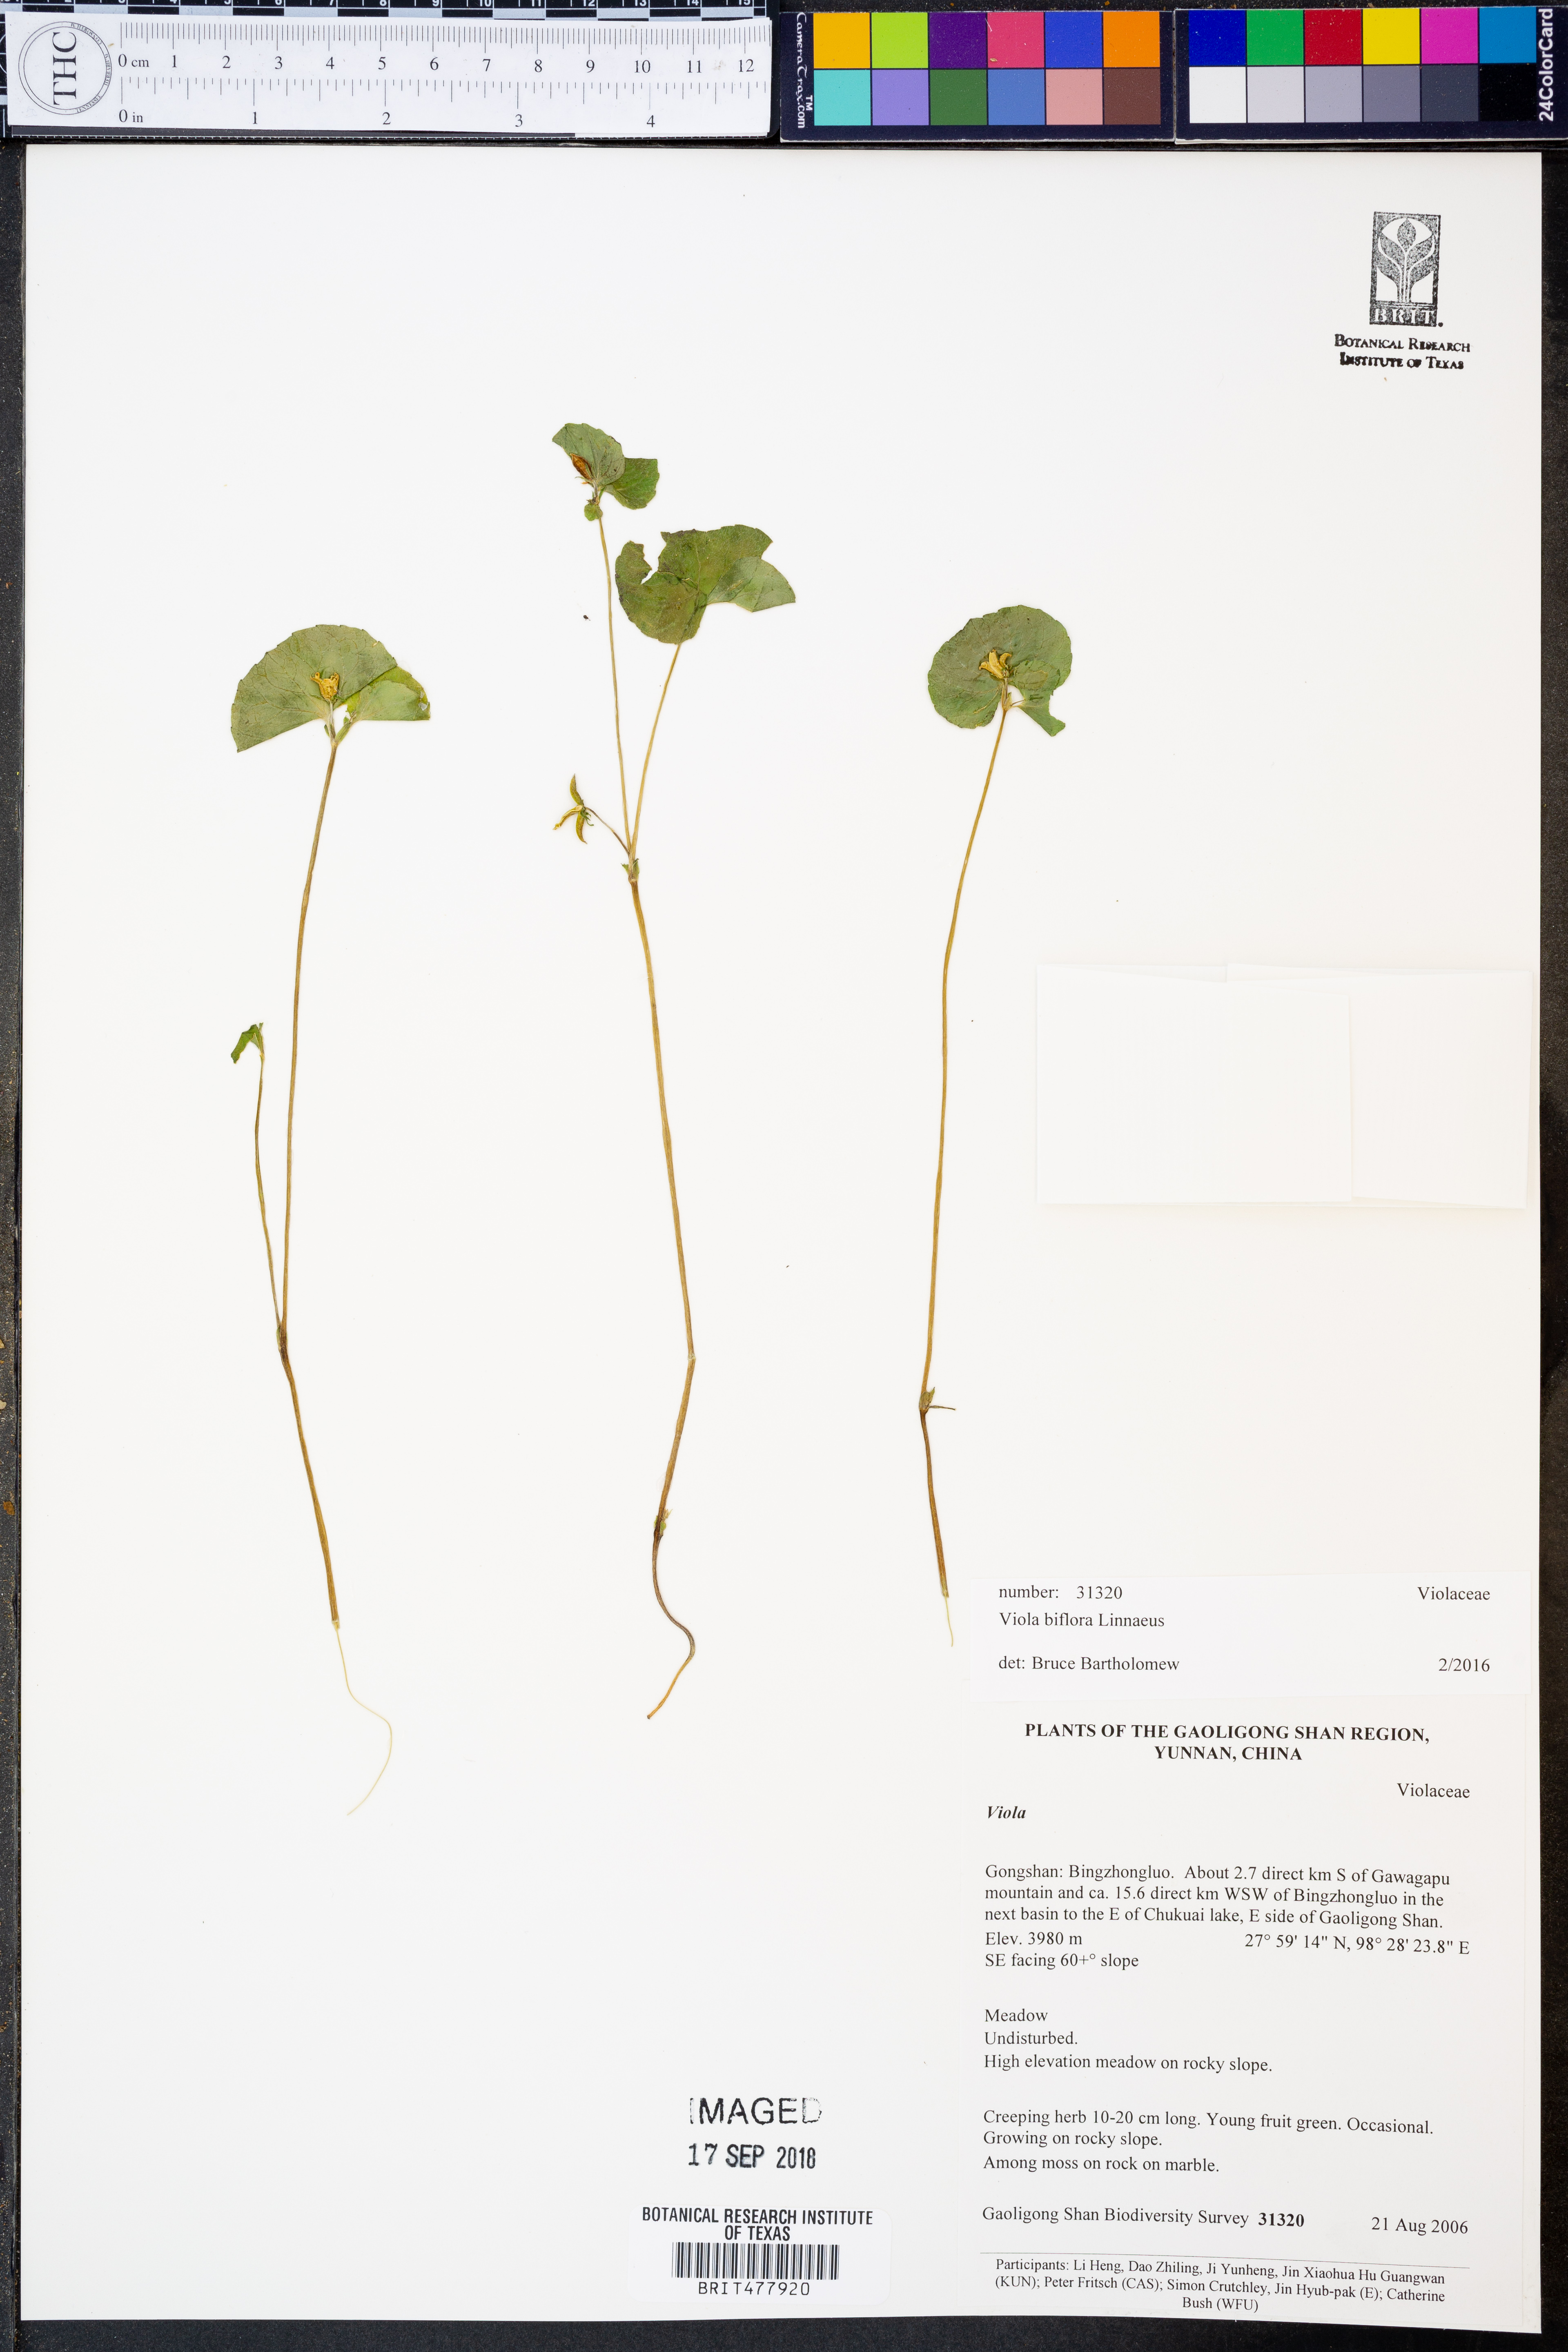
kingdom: Plantae
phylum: Tracheophyta
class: Magnoliopsida
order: Malpighiales
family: Violaceae
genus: Viola
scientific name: Viola biflora
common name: Alpine yellow violet
